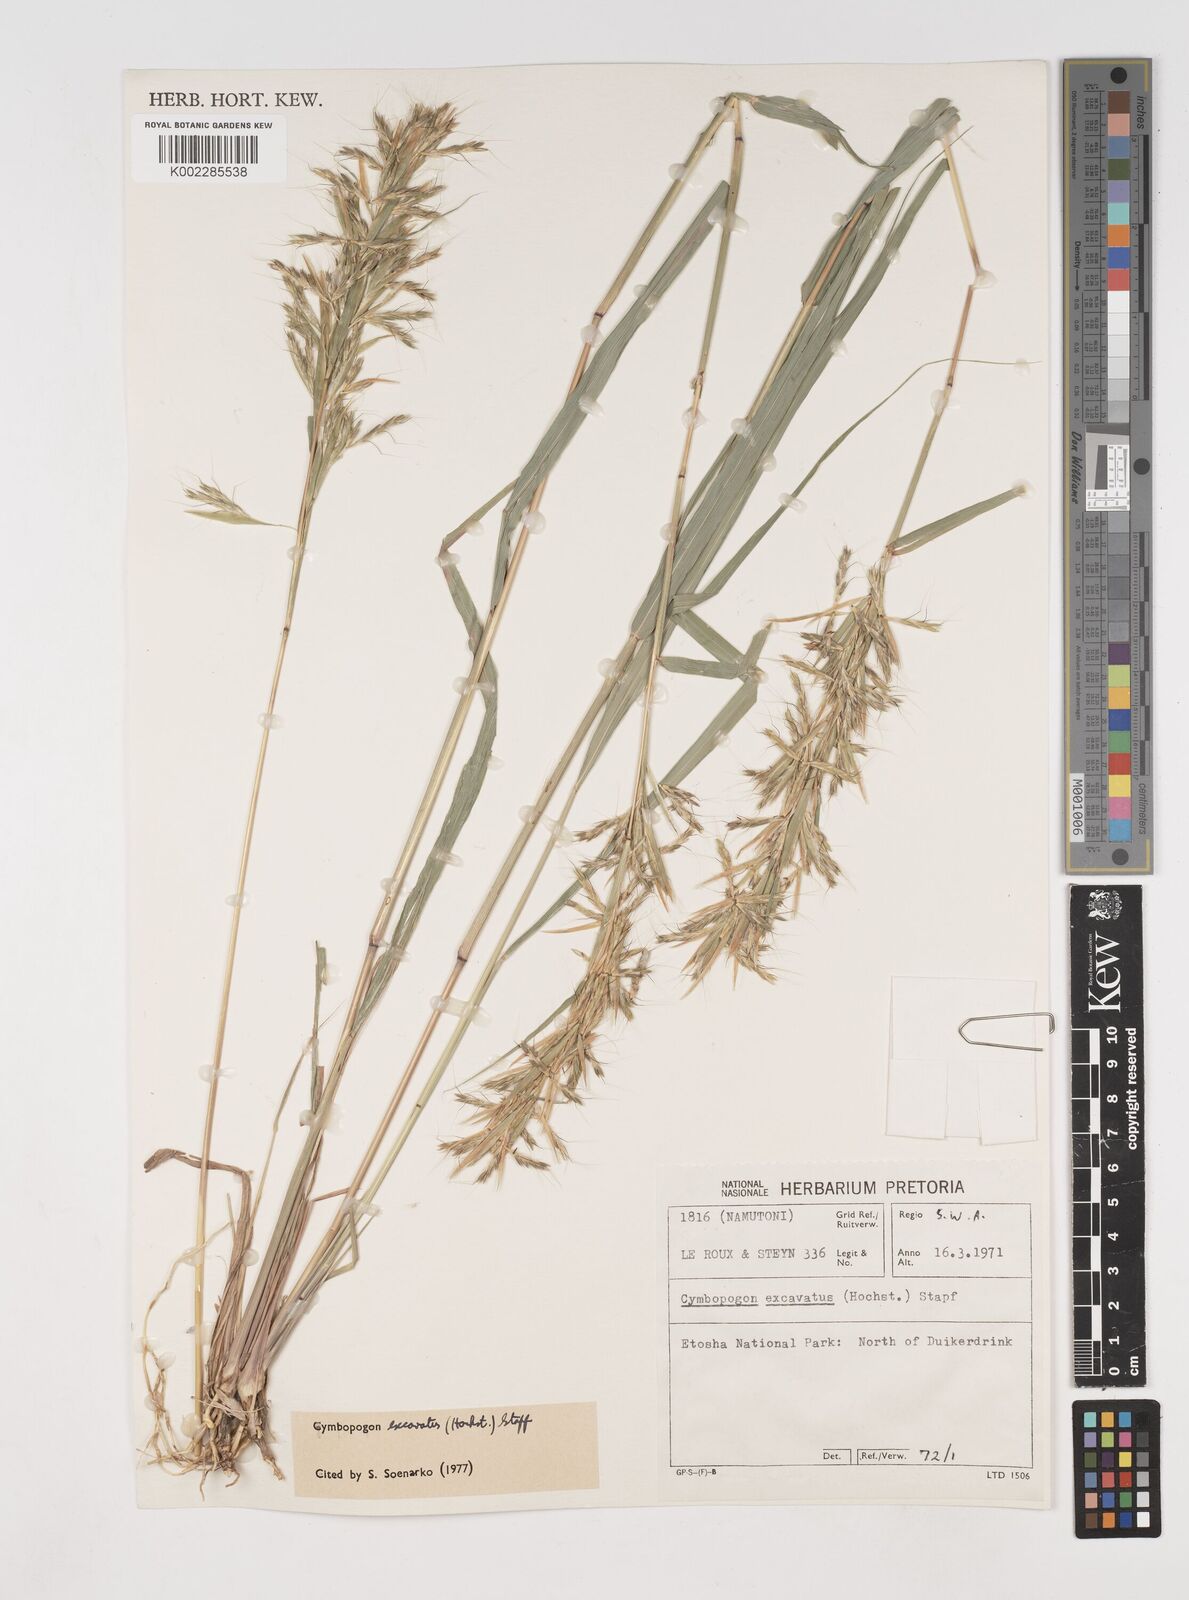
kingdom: Plantae
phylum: Tracheophyta
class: Liliopsida
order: Poales
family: Poaceae
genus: Cymbopogon
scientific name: Cymbopogon caesius
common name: Kachi grass
